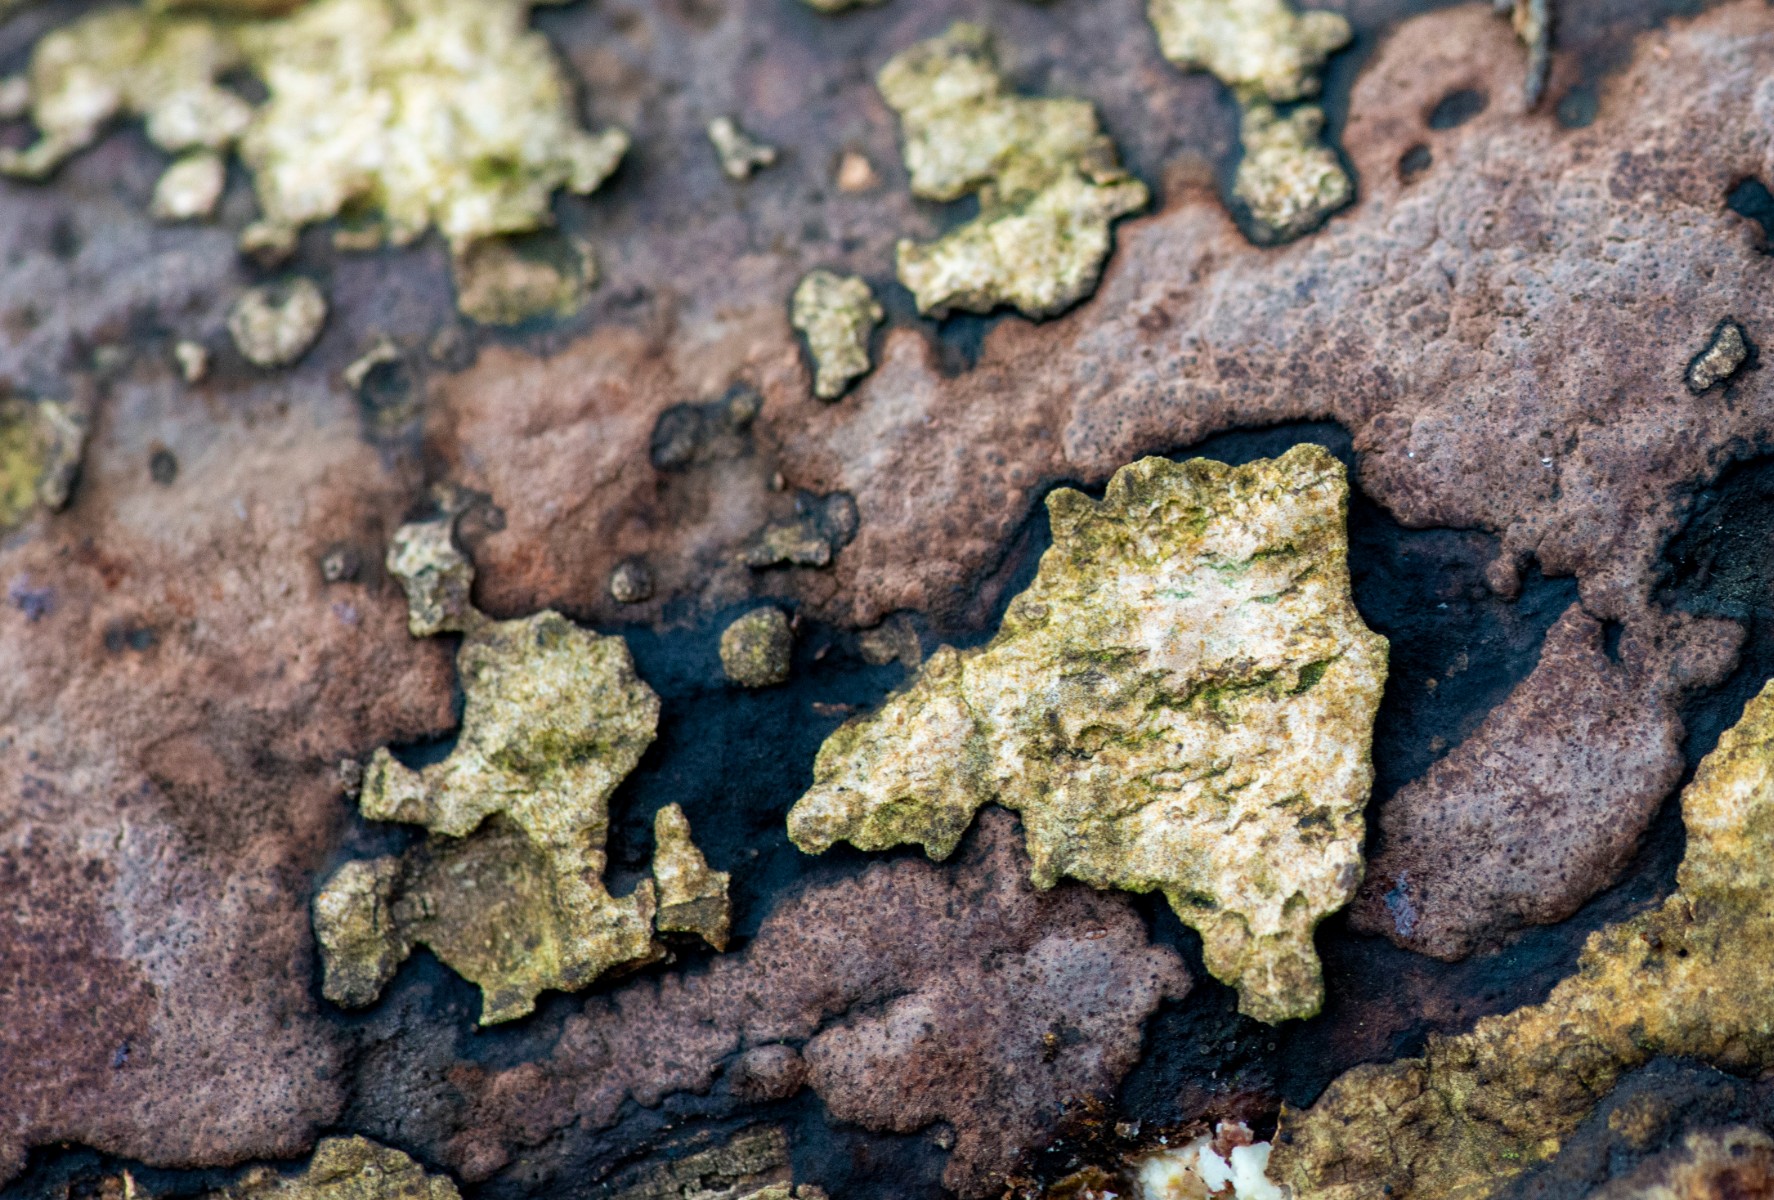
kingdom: Fungi
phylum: Ascomycota
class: Sordariomycetes
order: Xylariales
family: Hypoxylaceae
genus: Hypoxylon
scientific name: Hypoxylon petriniae
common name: nedsænket kulbær
